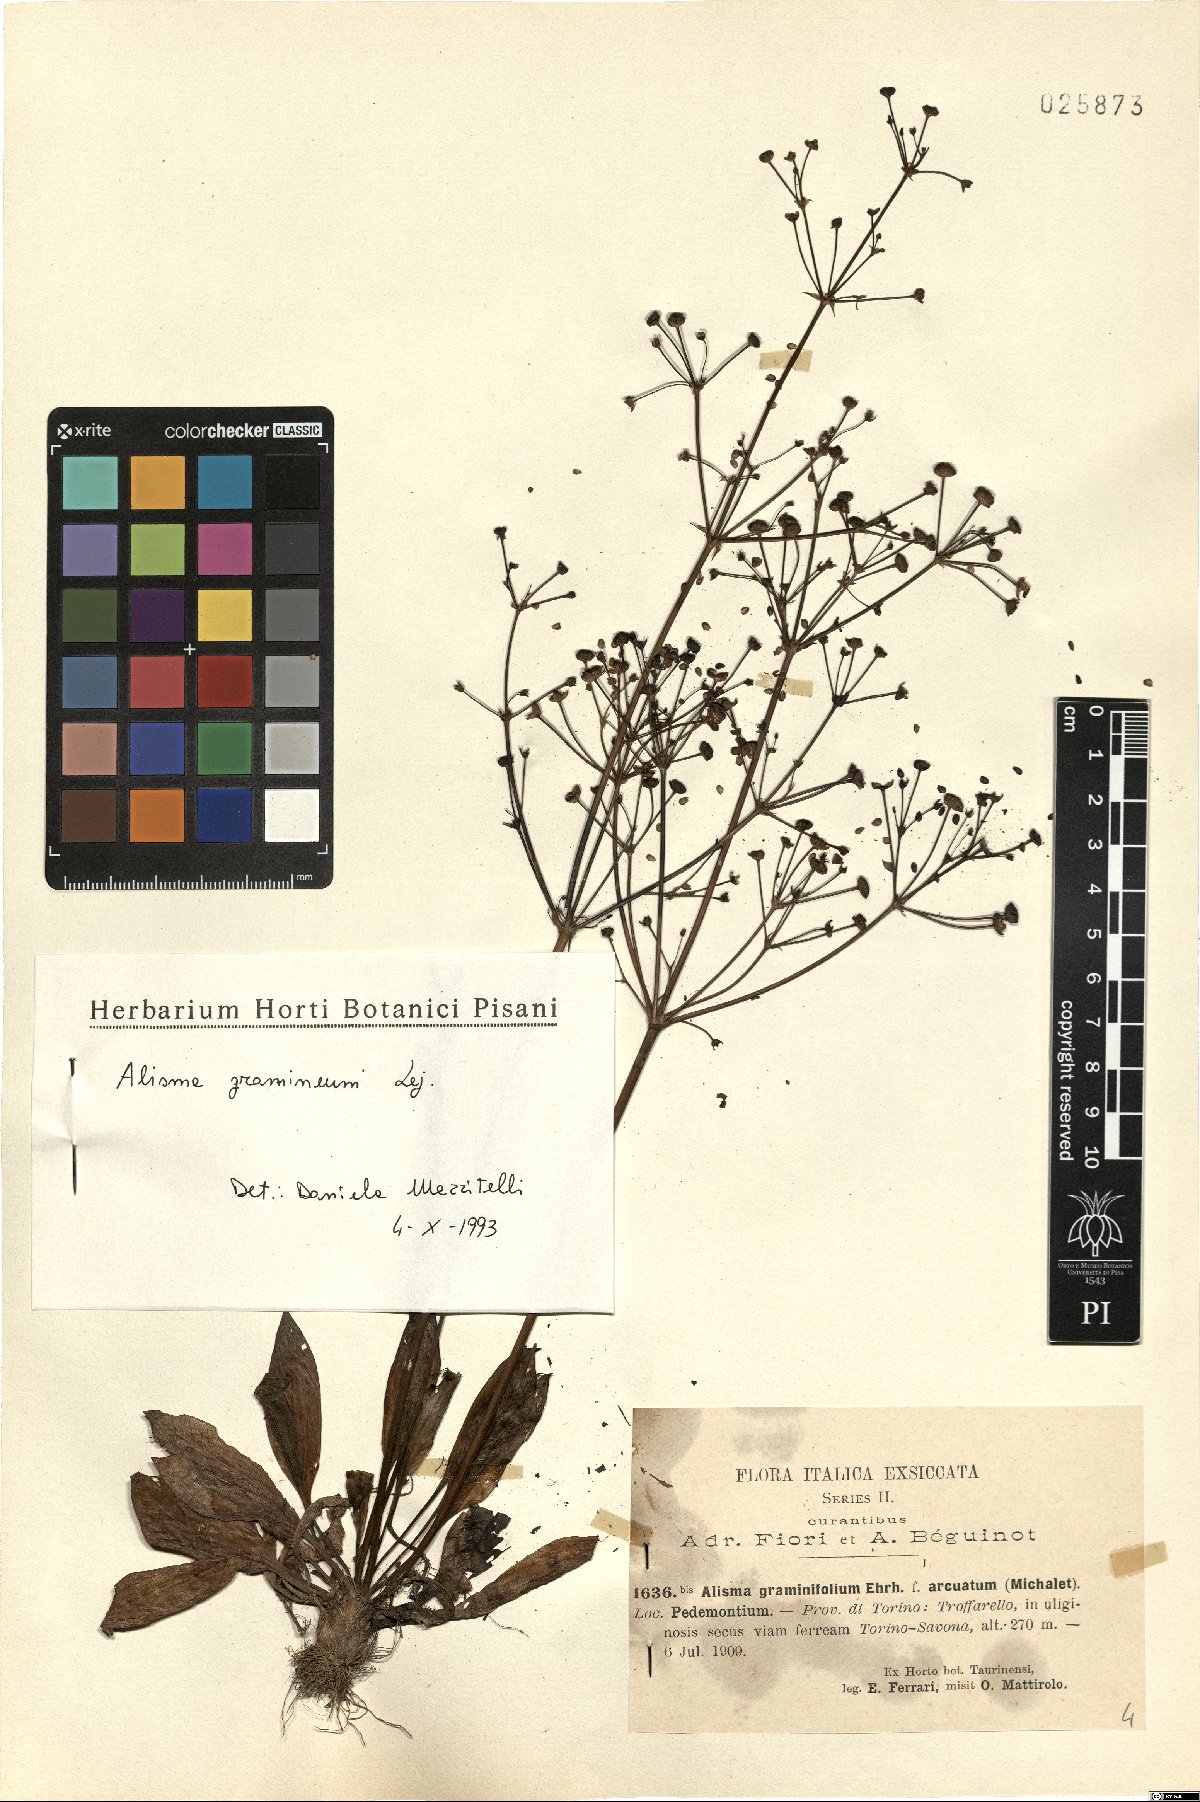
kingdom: Plantae
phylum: Tracheophyta
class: Liliopsida
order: Alismatales
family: Alismataceae
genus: Alisma
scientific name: Alisma gramineum
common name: Ribbon-leaved water-plantain
